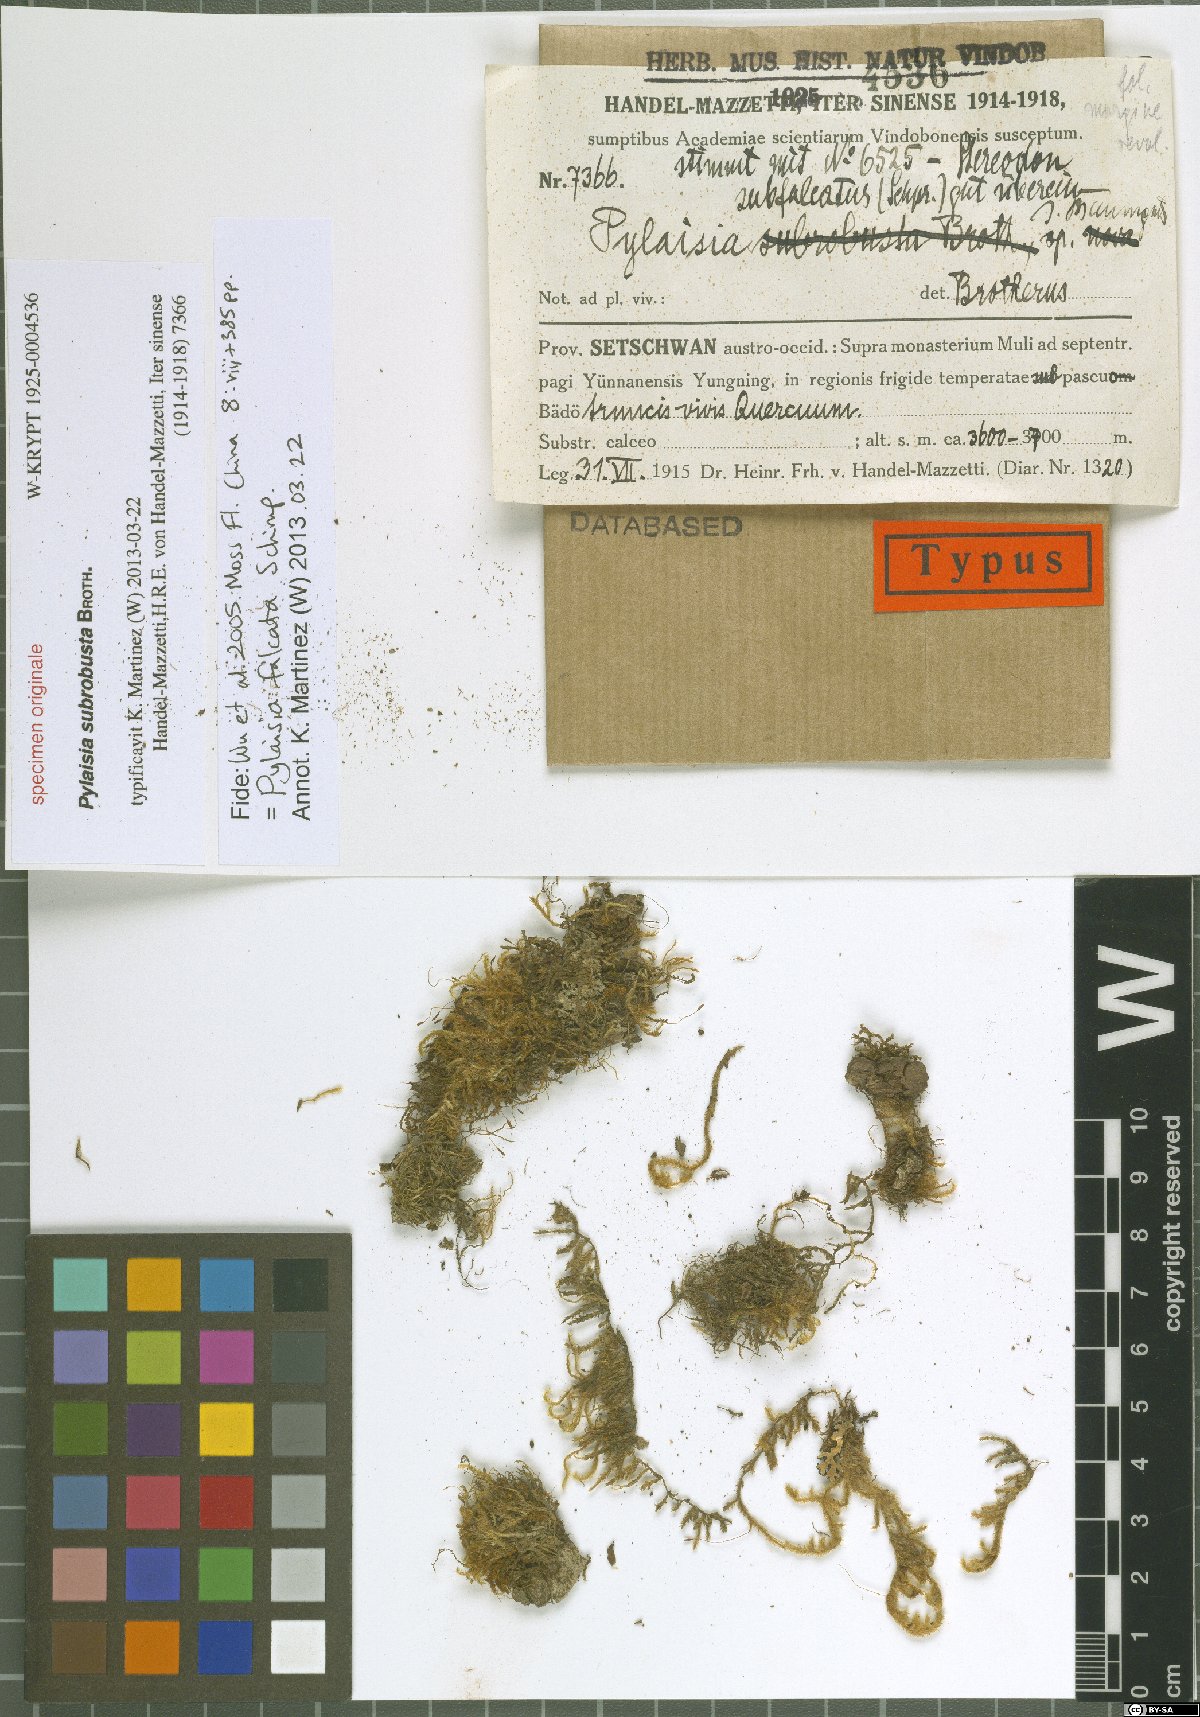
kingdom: Plantae
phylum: Bryophyta
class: Bryopsida
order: Hypnales
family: Hypnaceae
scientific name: Hypnaceae
